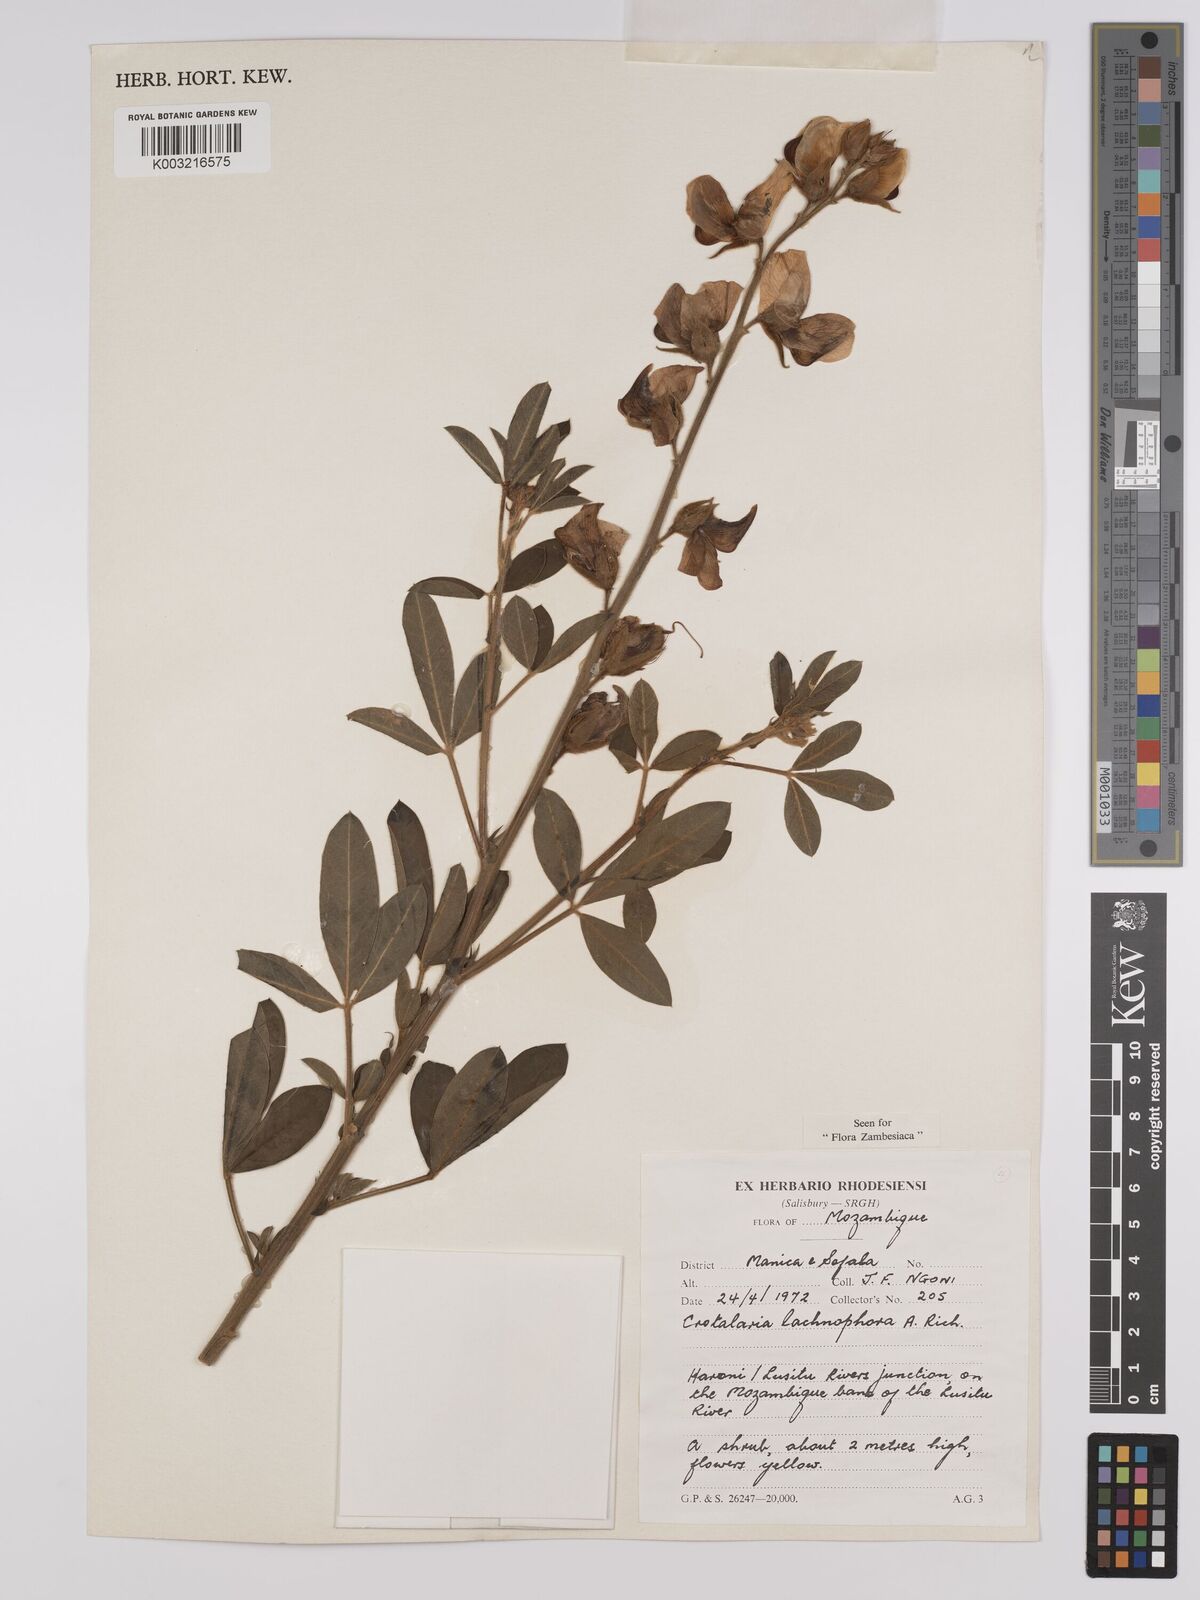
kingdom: Plantae
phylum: Tracheophyta
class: Magnoliopsida
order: Fabales
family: Fabaceae
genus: Crotalaria
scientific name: Crotalaria lachnophora
